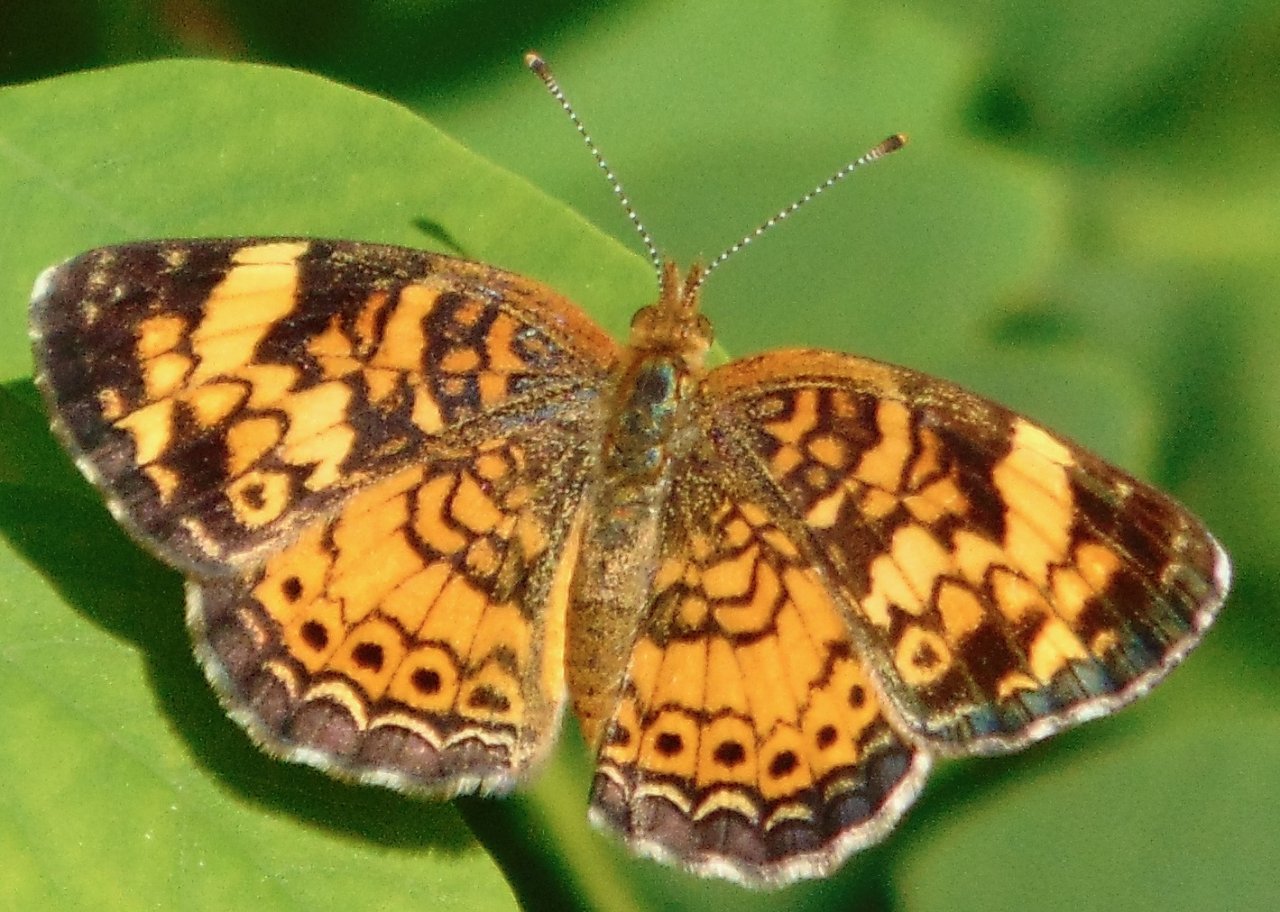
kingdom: Animalia
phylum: Arthropoda
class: Insecta
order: Lepidoptera
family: Nymphalidae
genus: Phyciodes
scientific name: Phyciodes tharos
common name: Pearl Crescent
